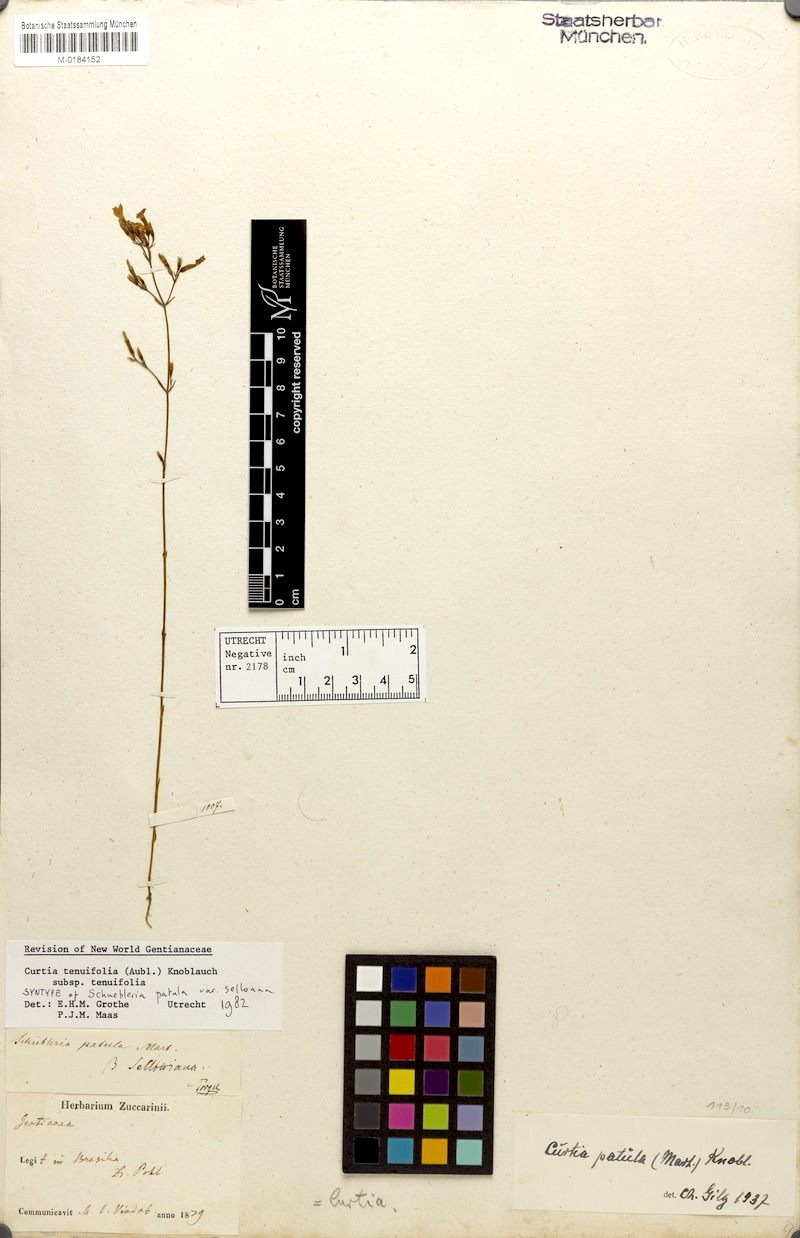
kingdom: Plantae
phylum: Tracheophyta
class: Magnoliopsida
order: Gentianales
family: Gentianaceae
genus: Curtia
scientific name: Curtia tenuifolia
